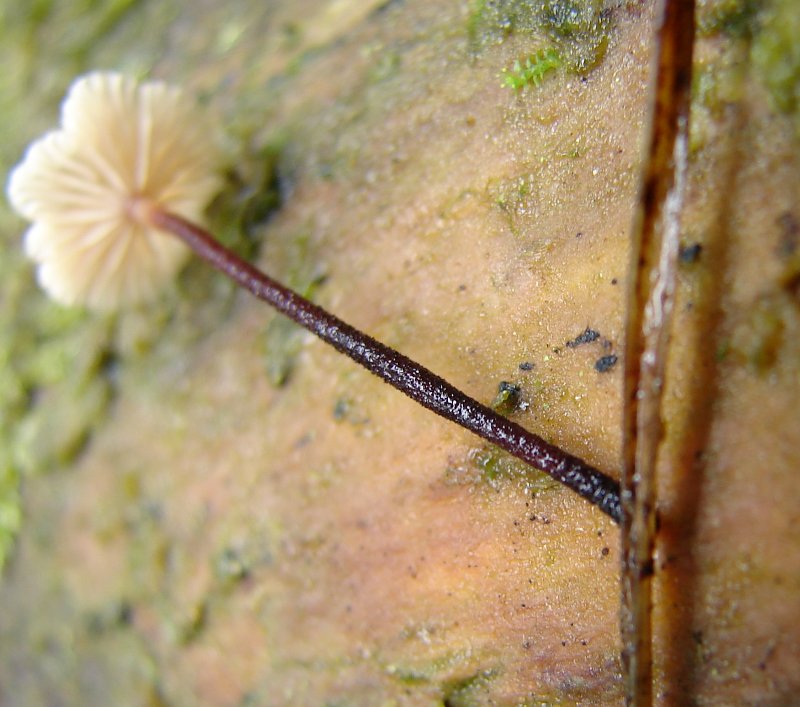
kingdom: Fungi
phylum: Basidiomycota
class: Agaricomycetes
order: Agaricales
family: Omphalotaceae
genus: Paragymnopus
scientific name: Paragymnopus perforans
